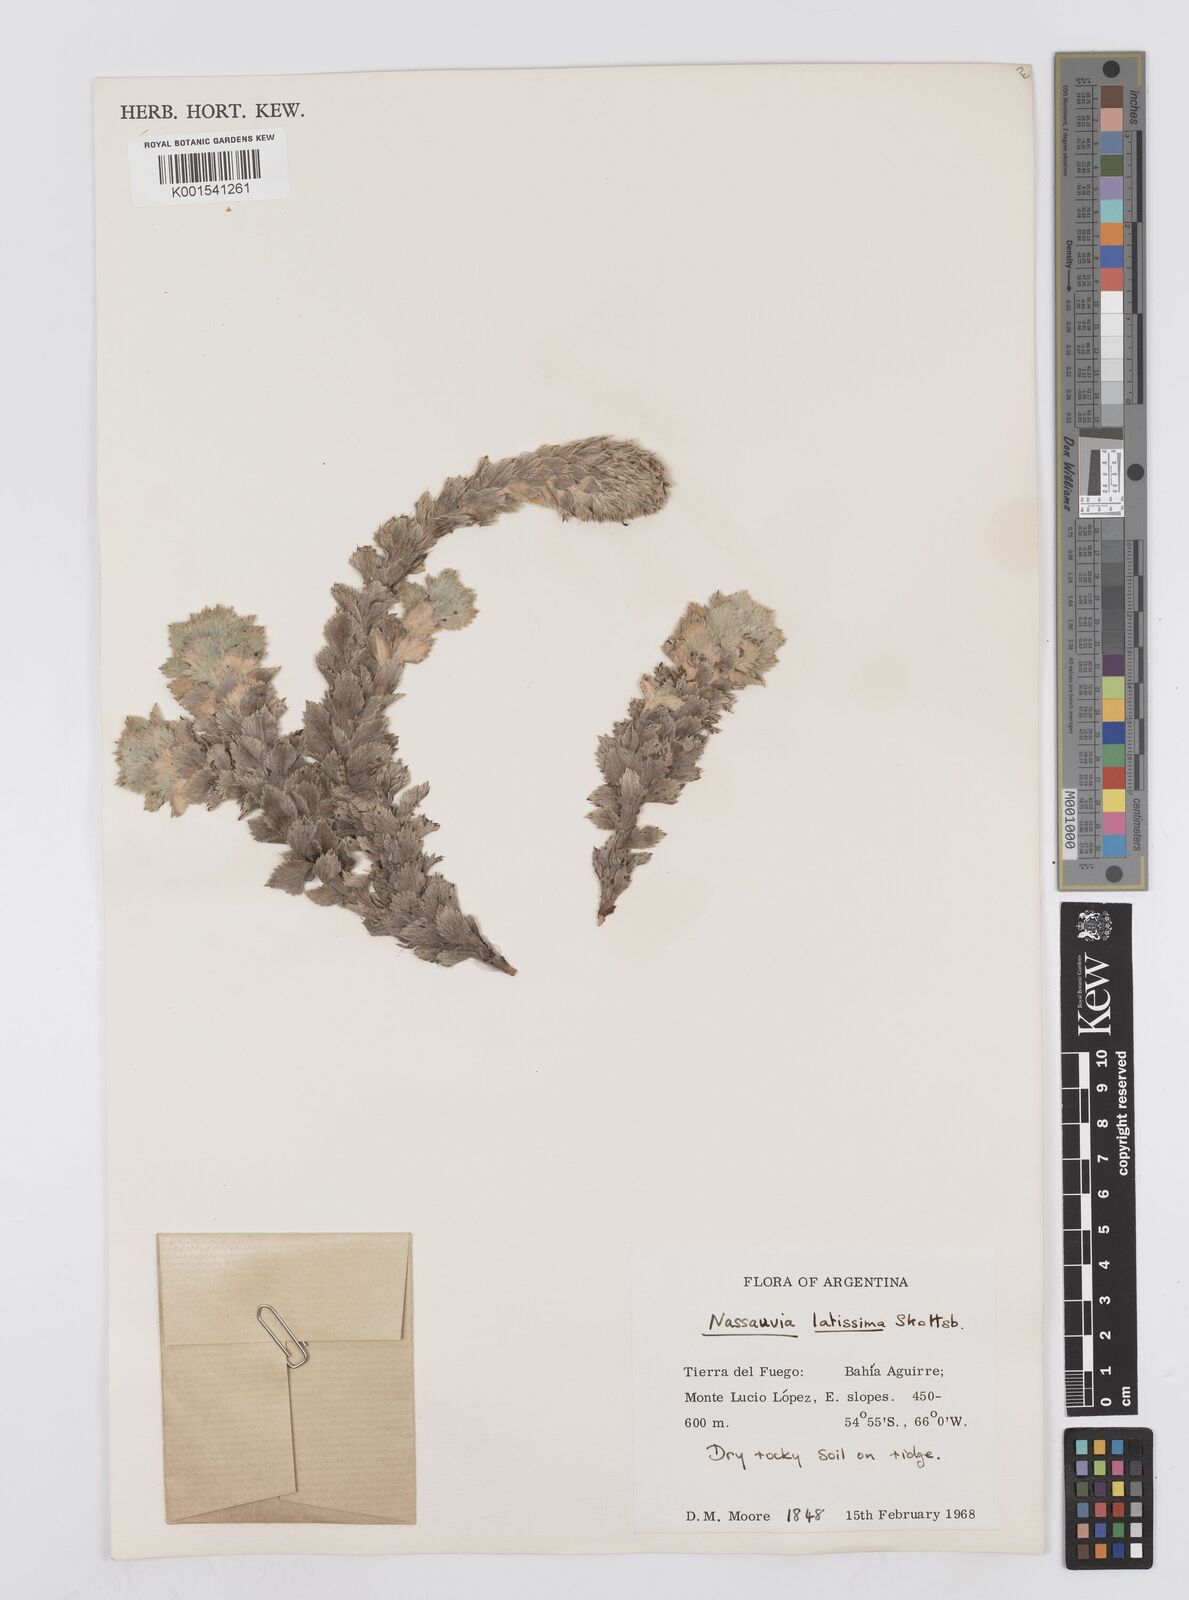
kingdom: Plantae
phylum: Tracheophyta
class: Magnoliopsida
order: Asterales
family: Asteraceae
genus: Nassauvia
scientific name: Nassauvia latissima
